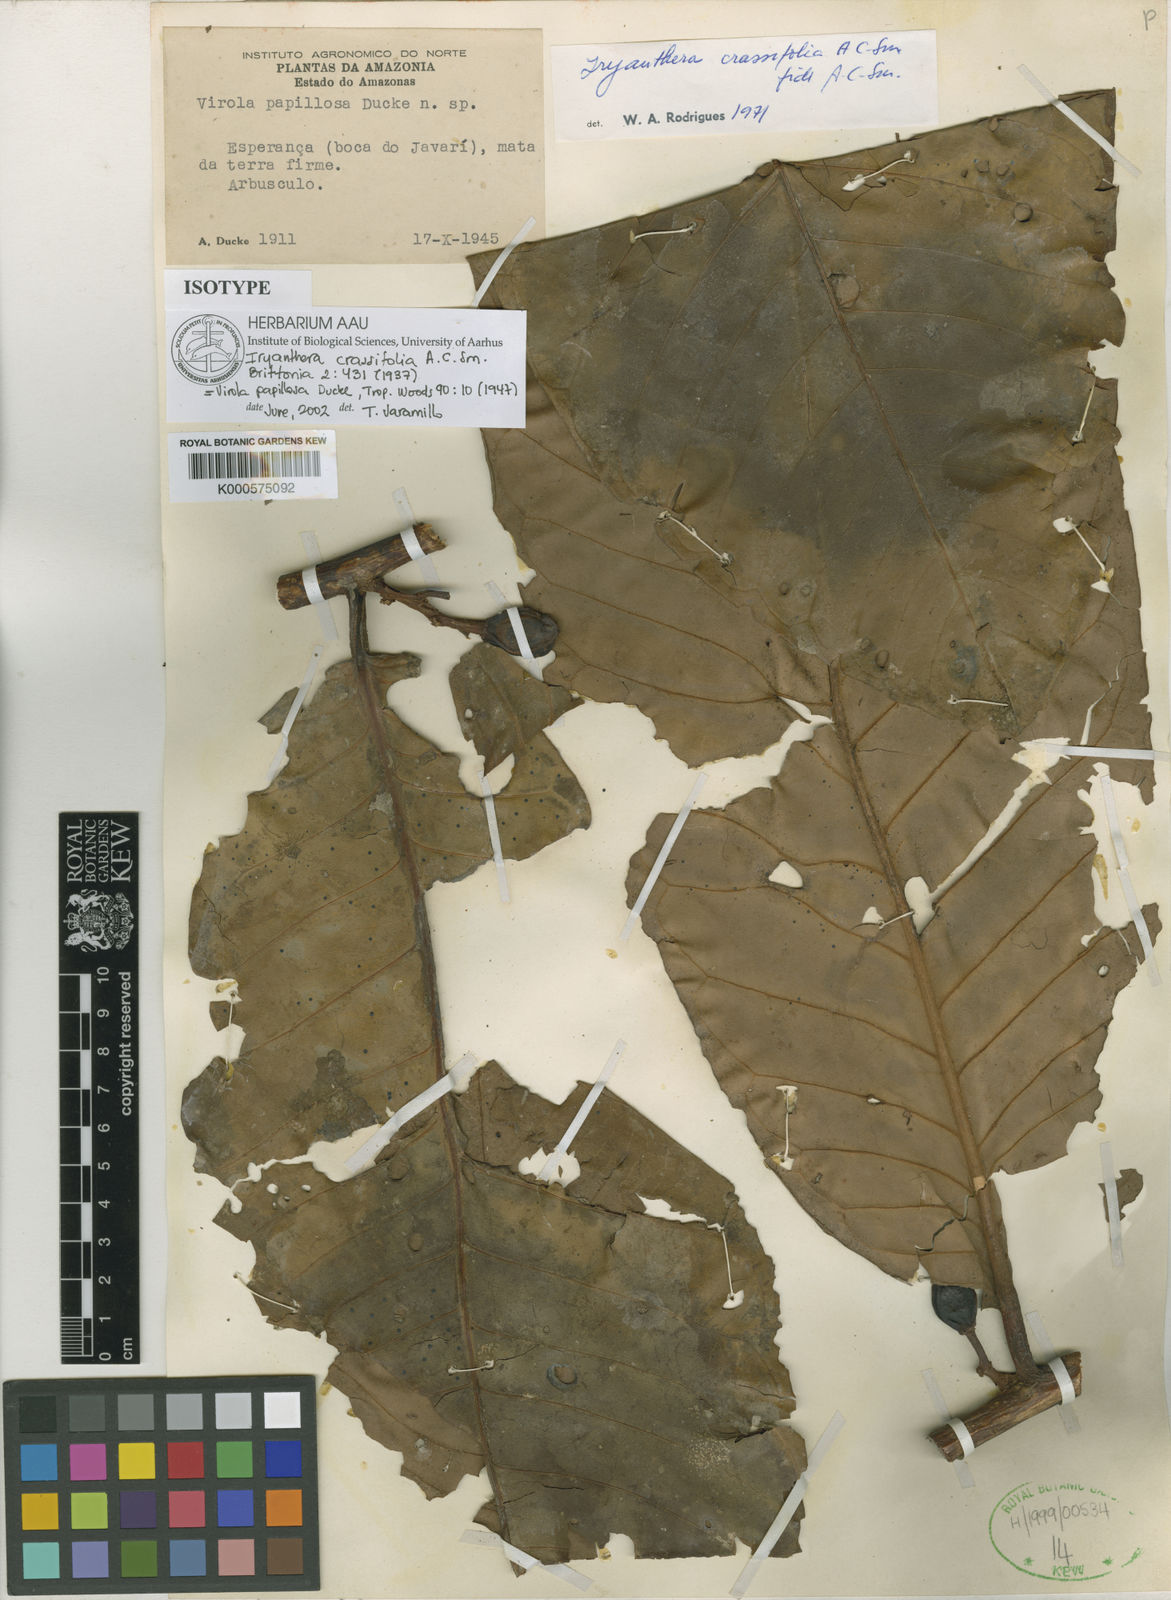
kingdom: Plantae
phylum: Tracheophyta
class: Magnoliopsida
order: Magnoliales
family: Myristicaceae
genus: Iryanthera
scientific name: Iryanthera crassifolia
